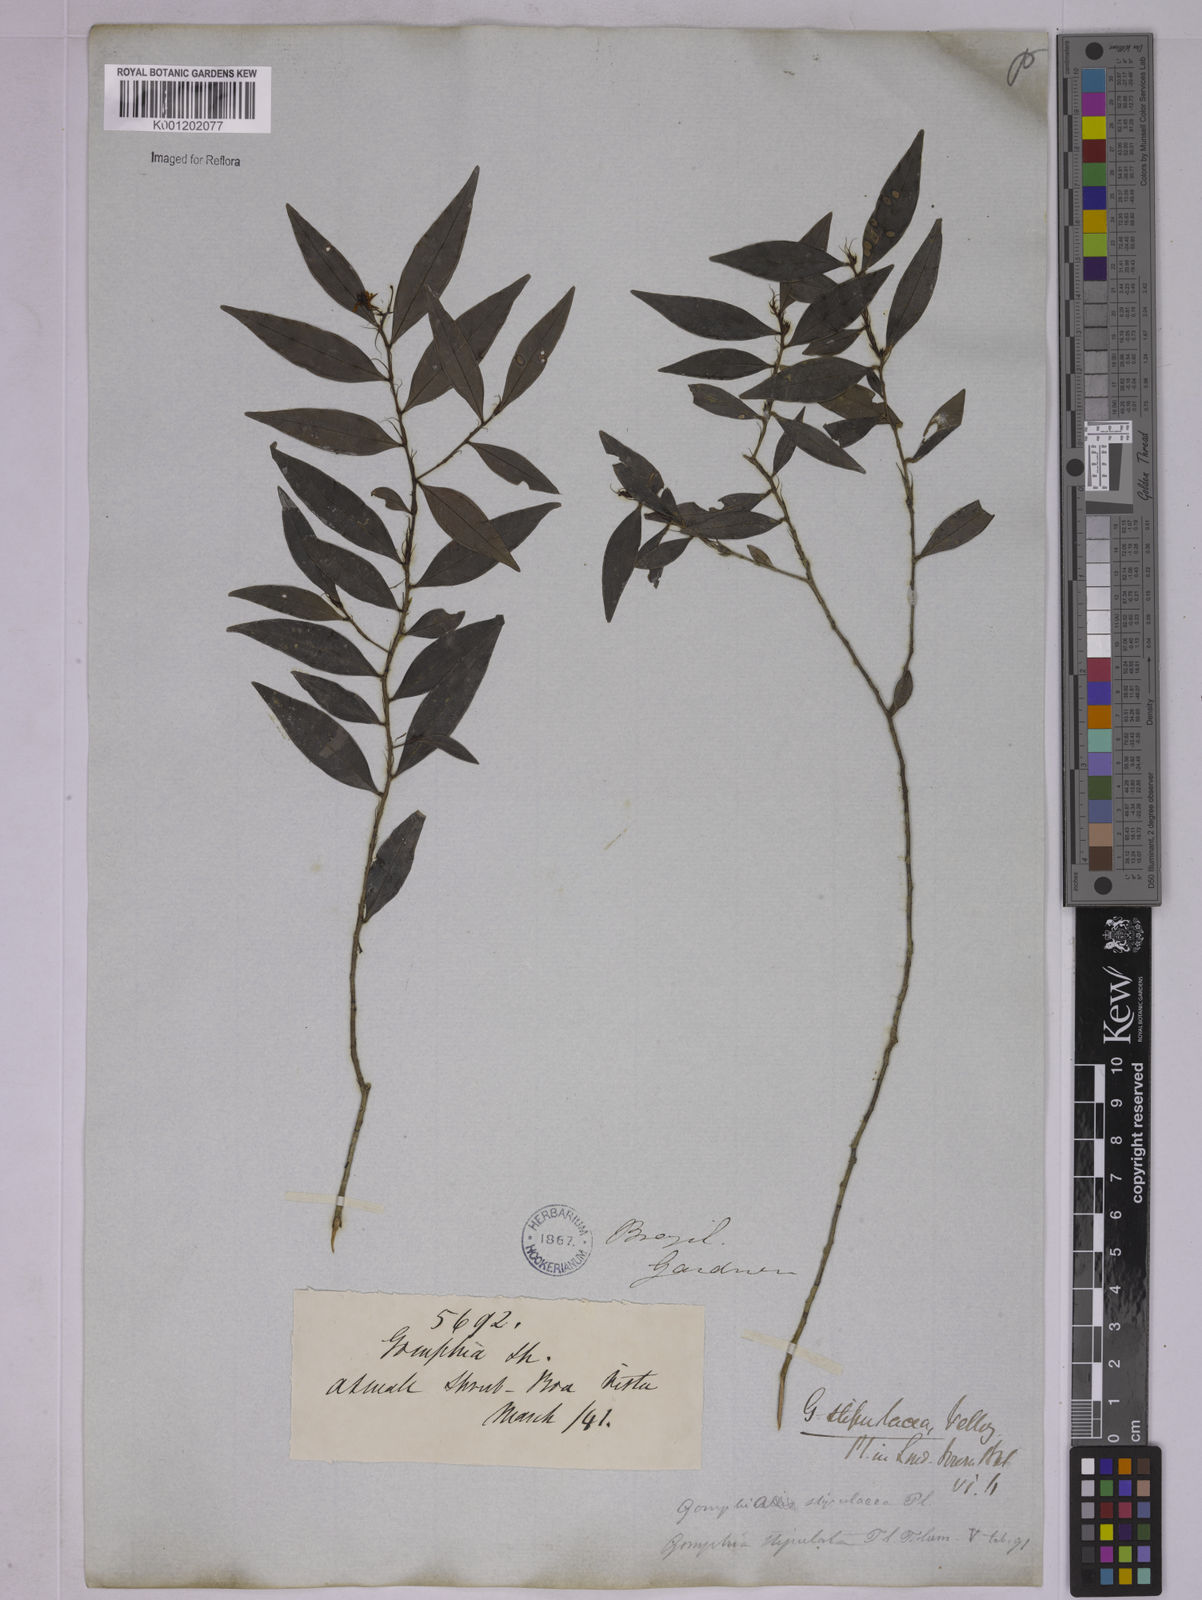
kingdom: Plantae
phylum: Tracheophyta
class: Magnoliopsida
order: Malpighiales
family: Ochnaceae
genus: Ouratea
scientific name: Ouratea stipulata
